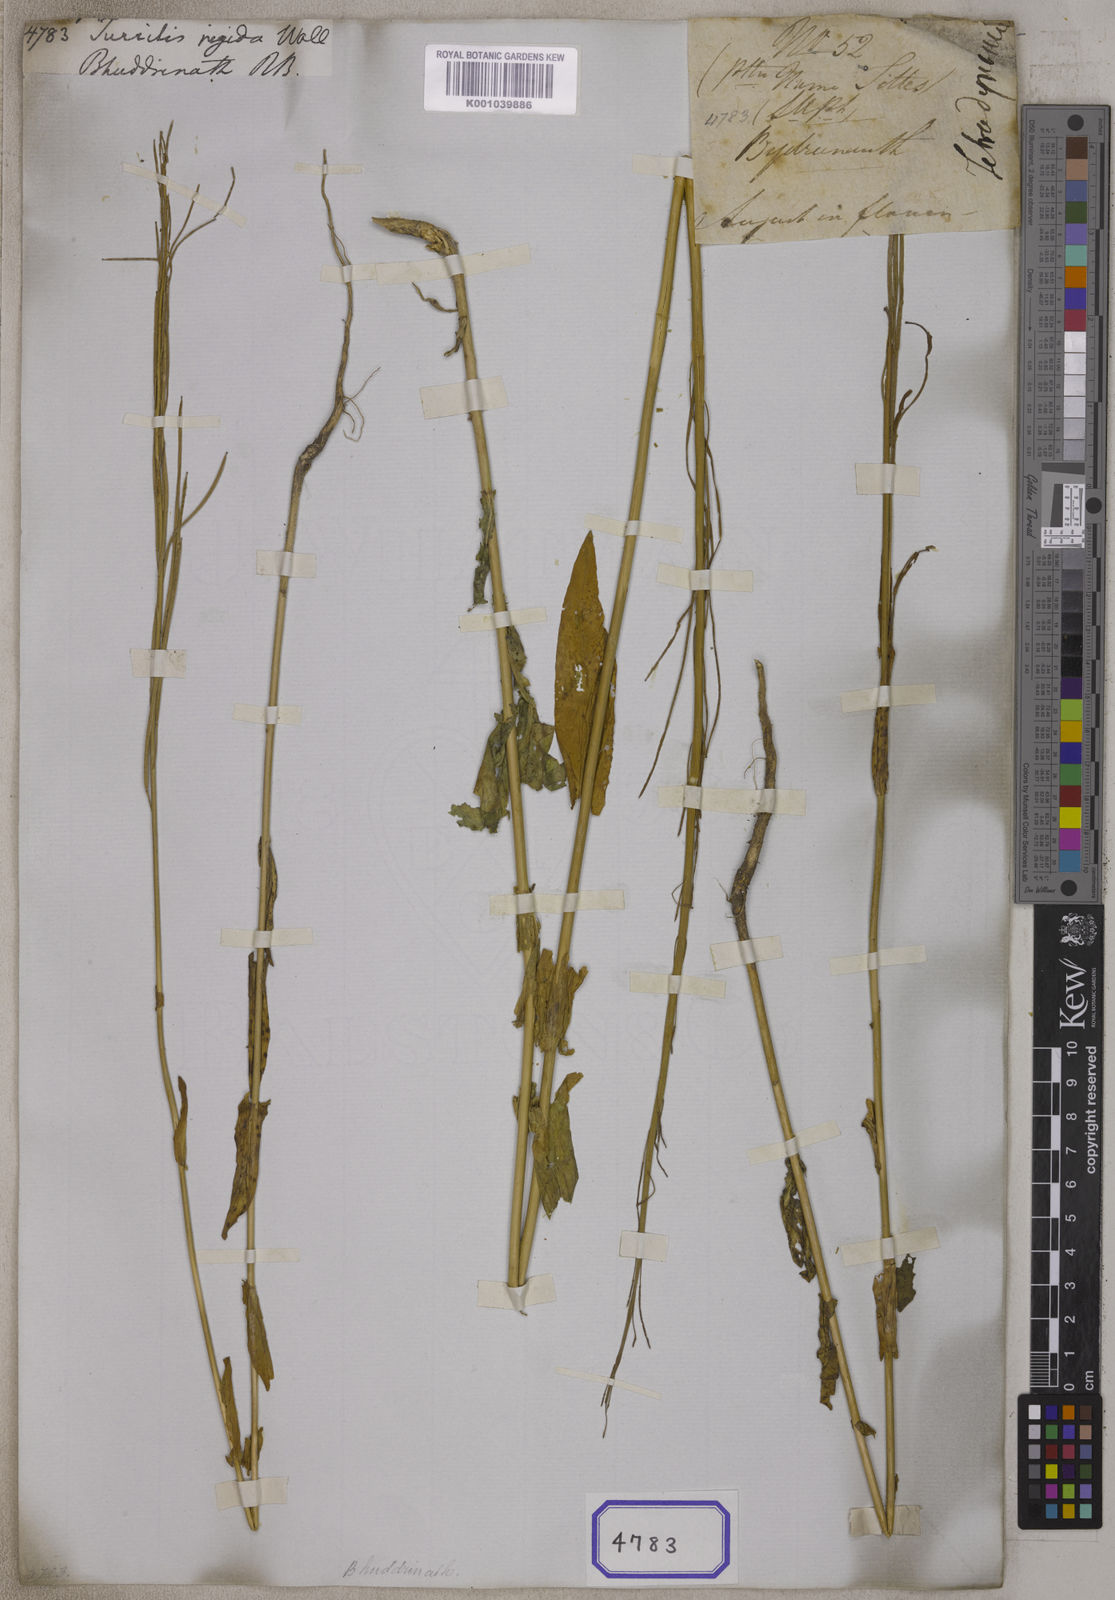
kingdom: Plantae
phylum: Tracheophyta
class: Magnoliopsida
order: Brassicales
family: Brassicaceae
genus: Turritis
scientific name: Turritis glabra
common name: Tower rockcress
